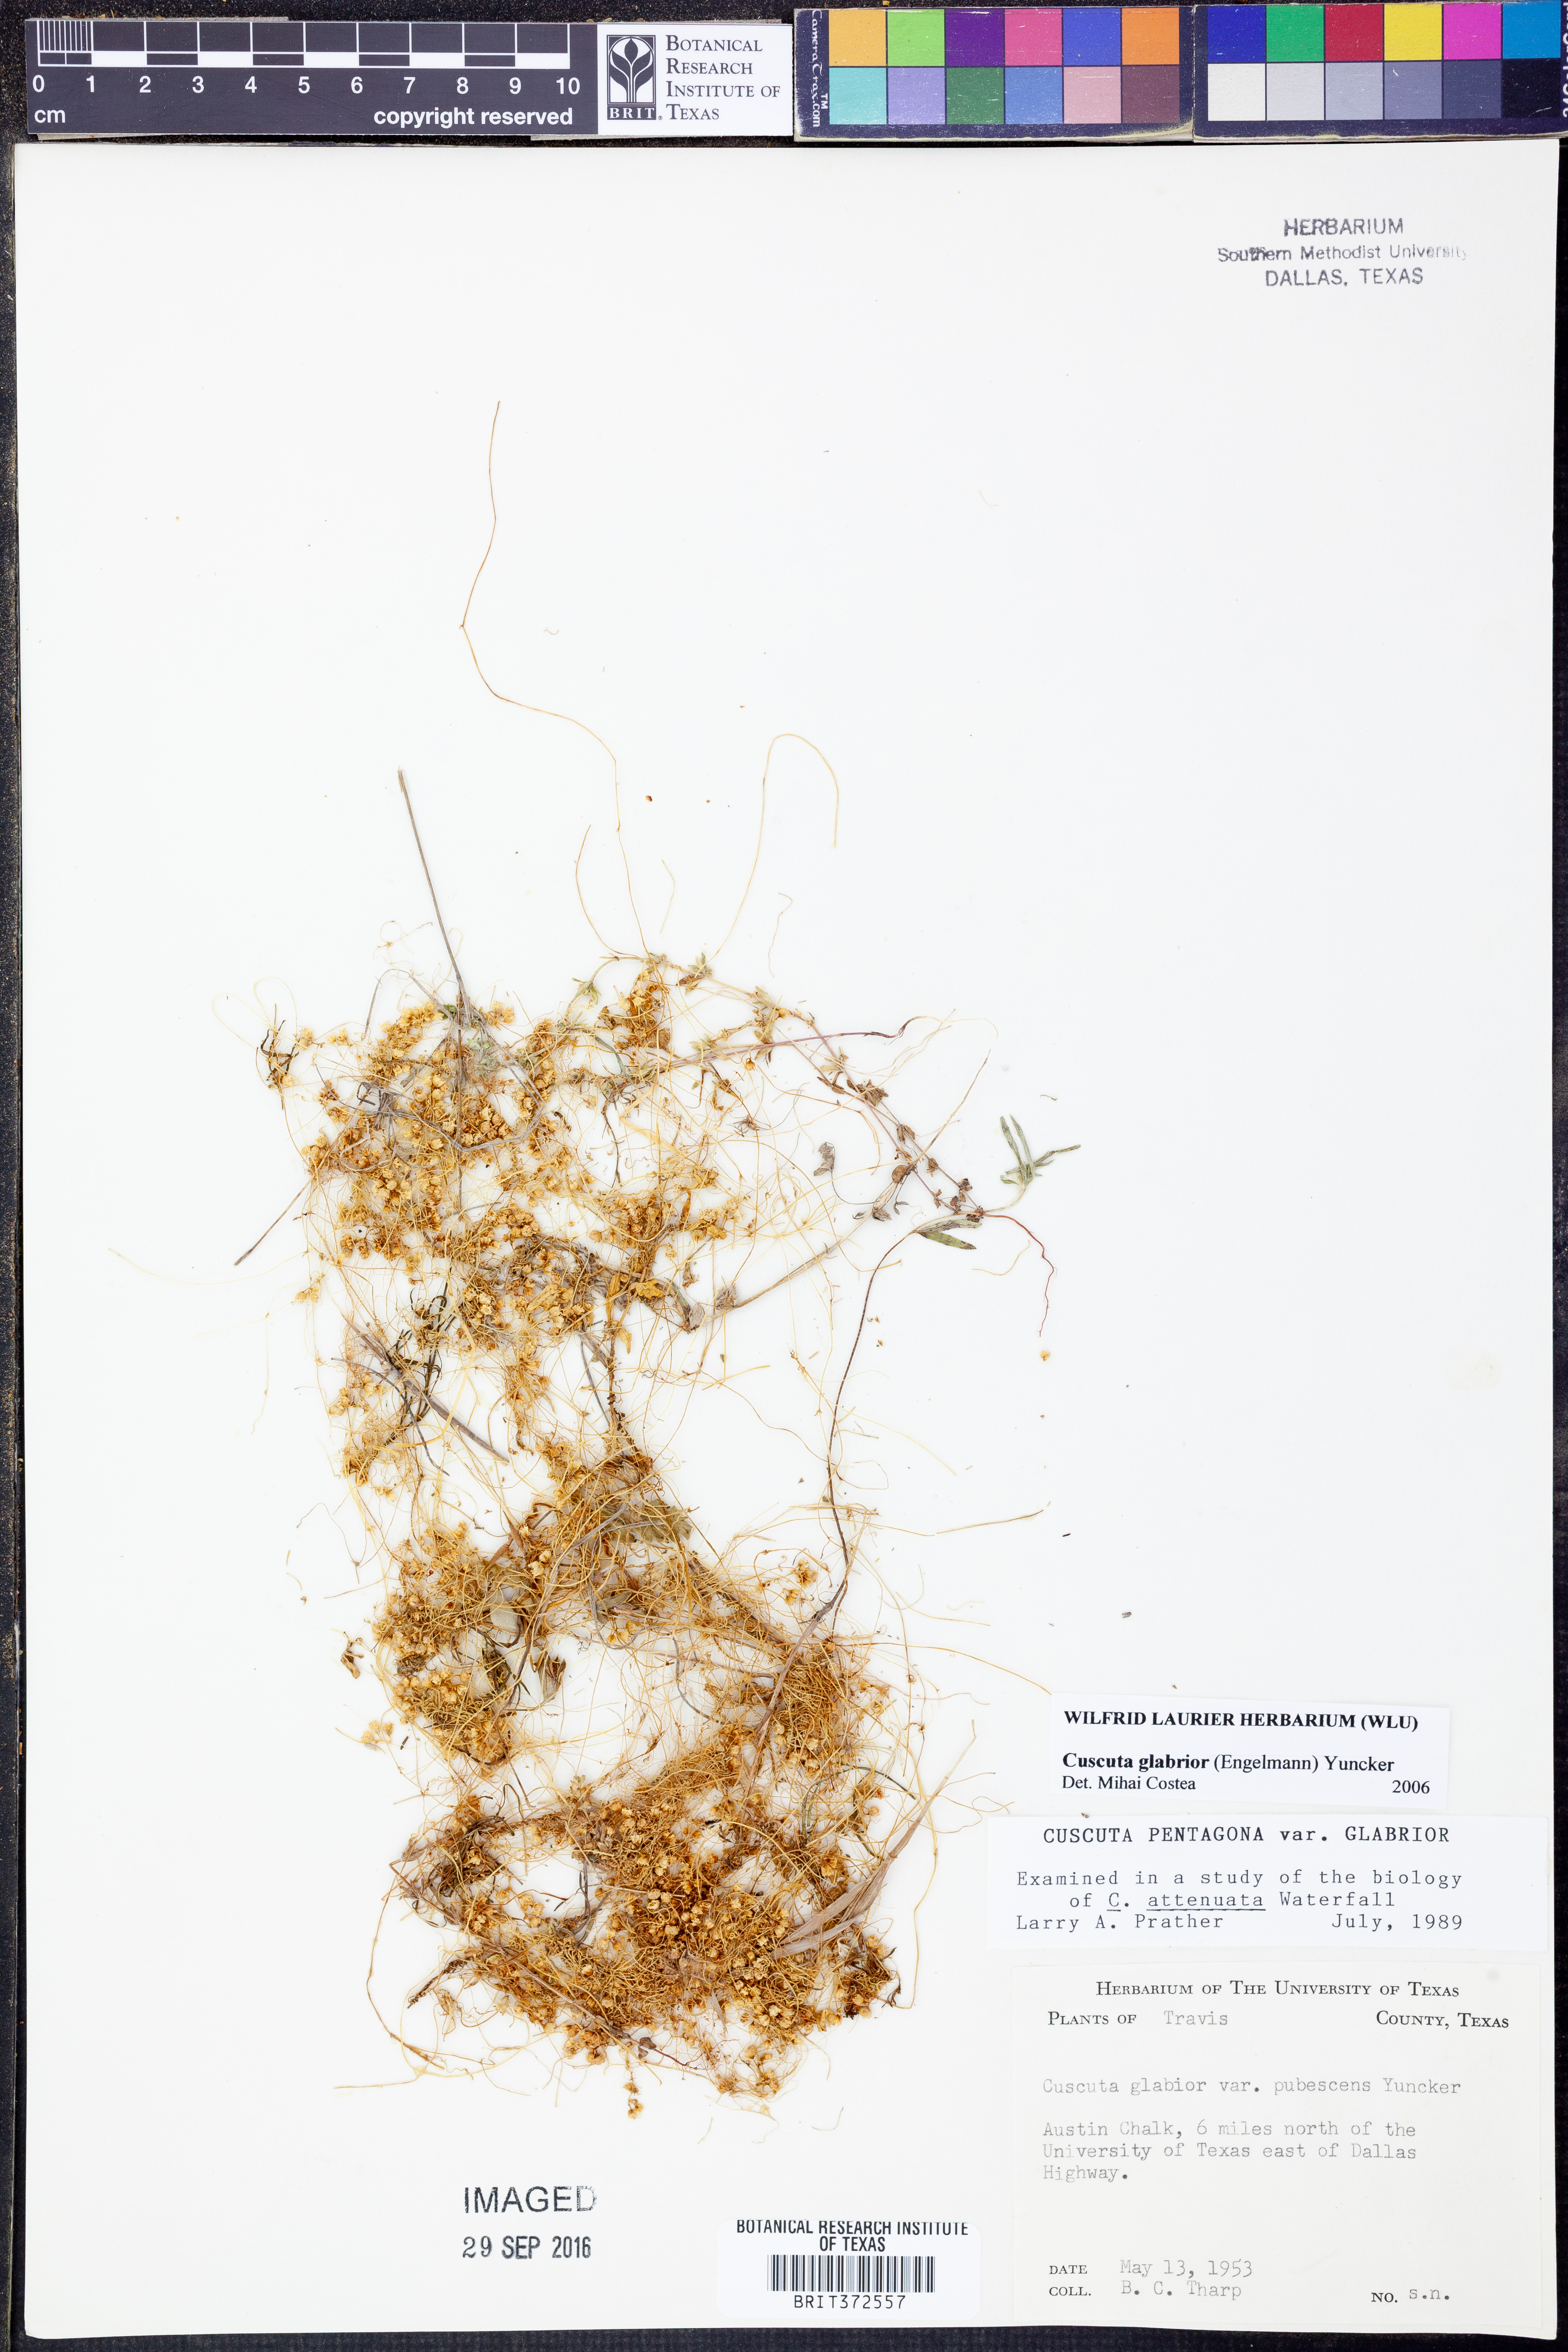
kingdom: Plantae
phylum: Tracheophyta
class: Magnoliopsida
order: Solanales
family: Convolvulaceae
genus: Cuscuta
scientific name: Cuscuta glabrior
